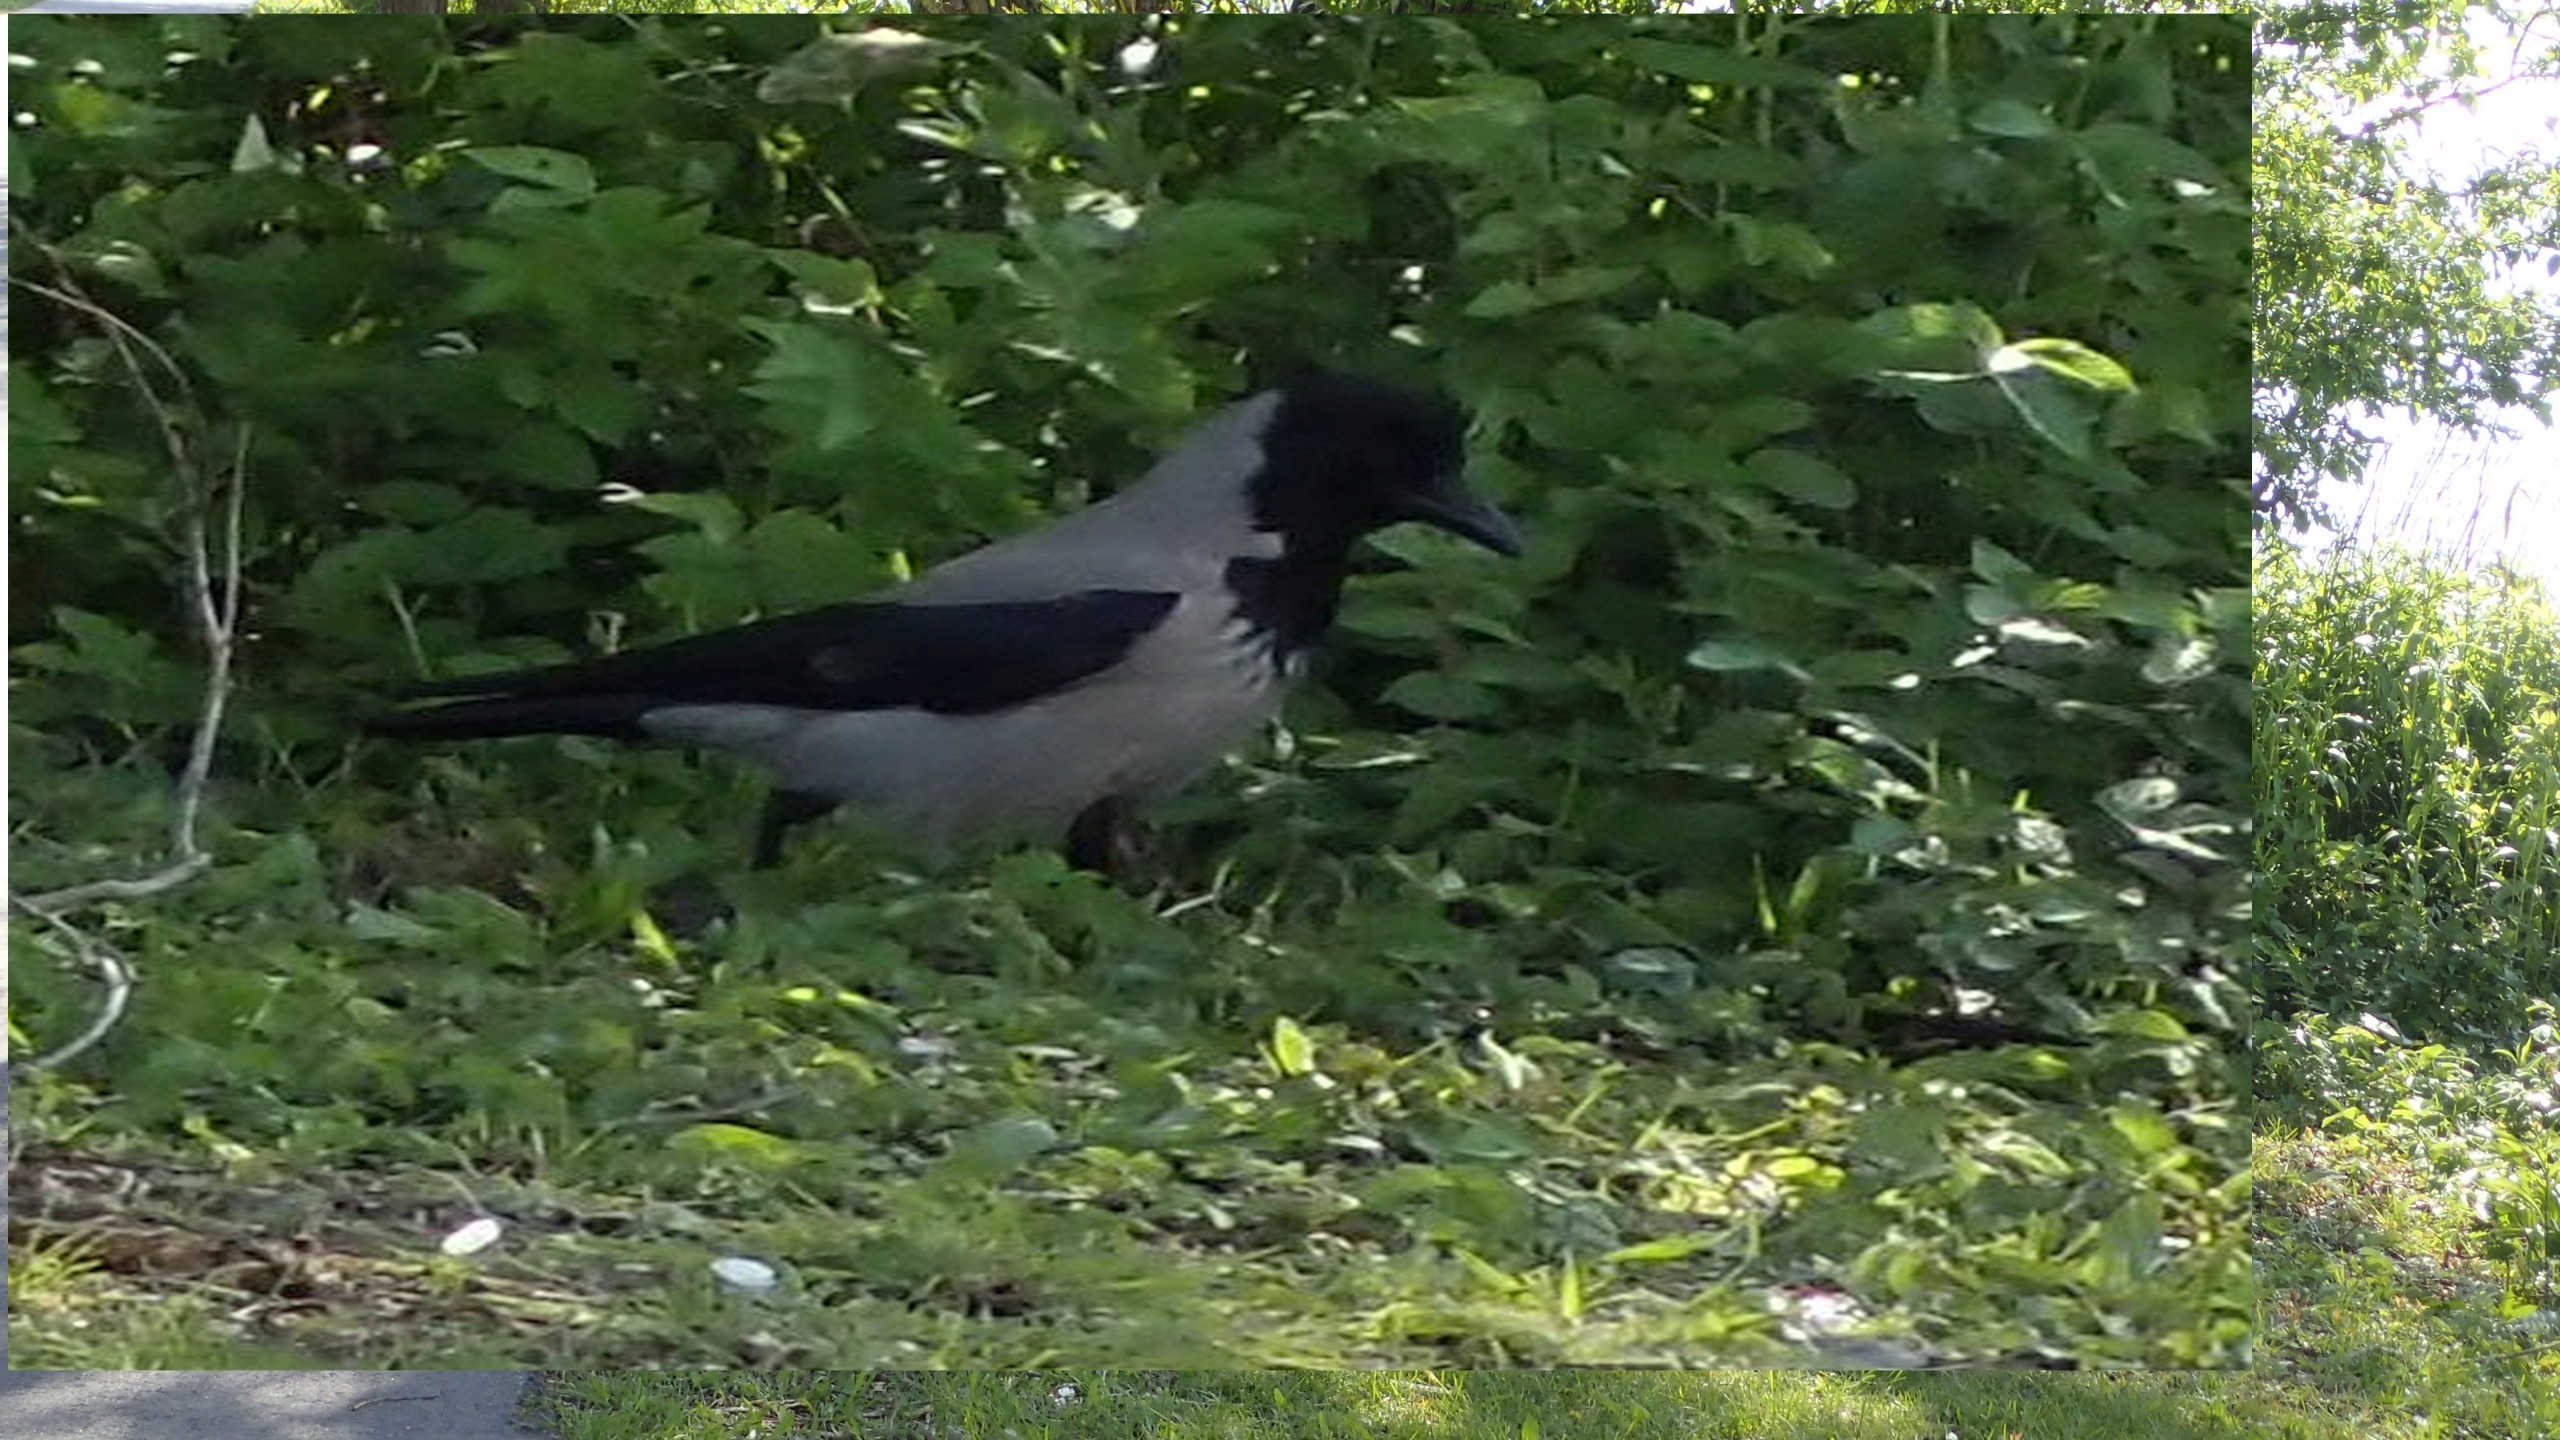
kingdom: Animalia
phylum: Chordata
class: Aves
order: Passeriformes
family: Corvidae
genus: Corvus
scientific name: Corvus cornix
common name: Gråkrage
